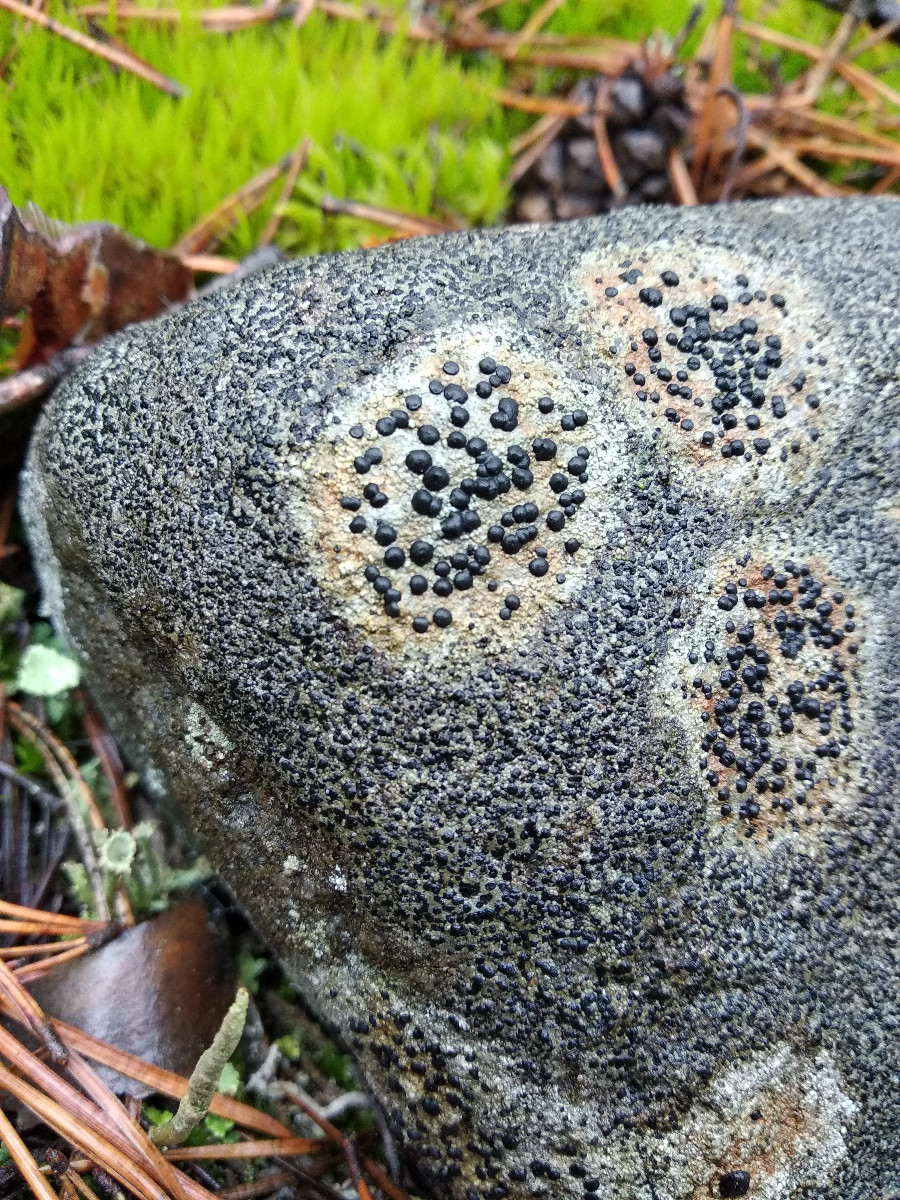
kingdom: Fungi
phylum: Ascomycota
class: Lecanoromycetes
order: Lecideales
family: Lecideaceae
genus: Porpidia
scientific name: Porpidia
